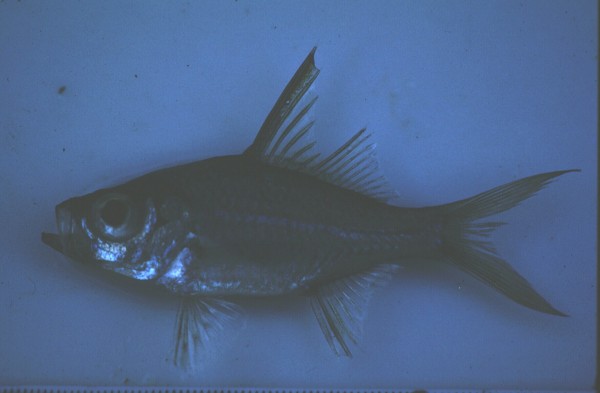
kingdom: Animalia
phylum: Chordata
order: Perciformes
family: Ambassidae
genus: Ambassis
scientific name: Ambassis
